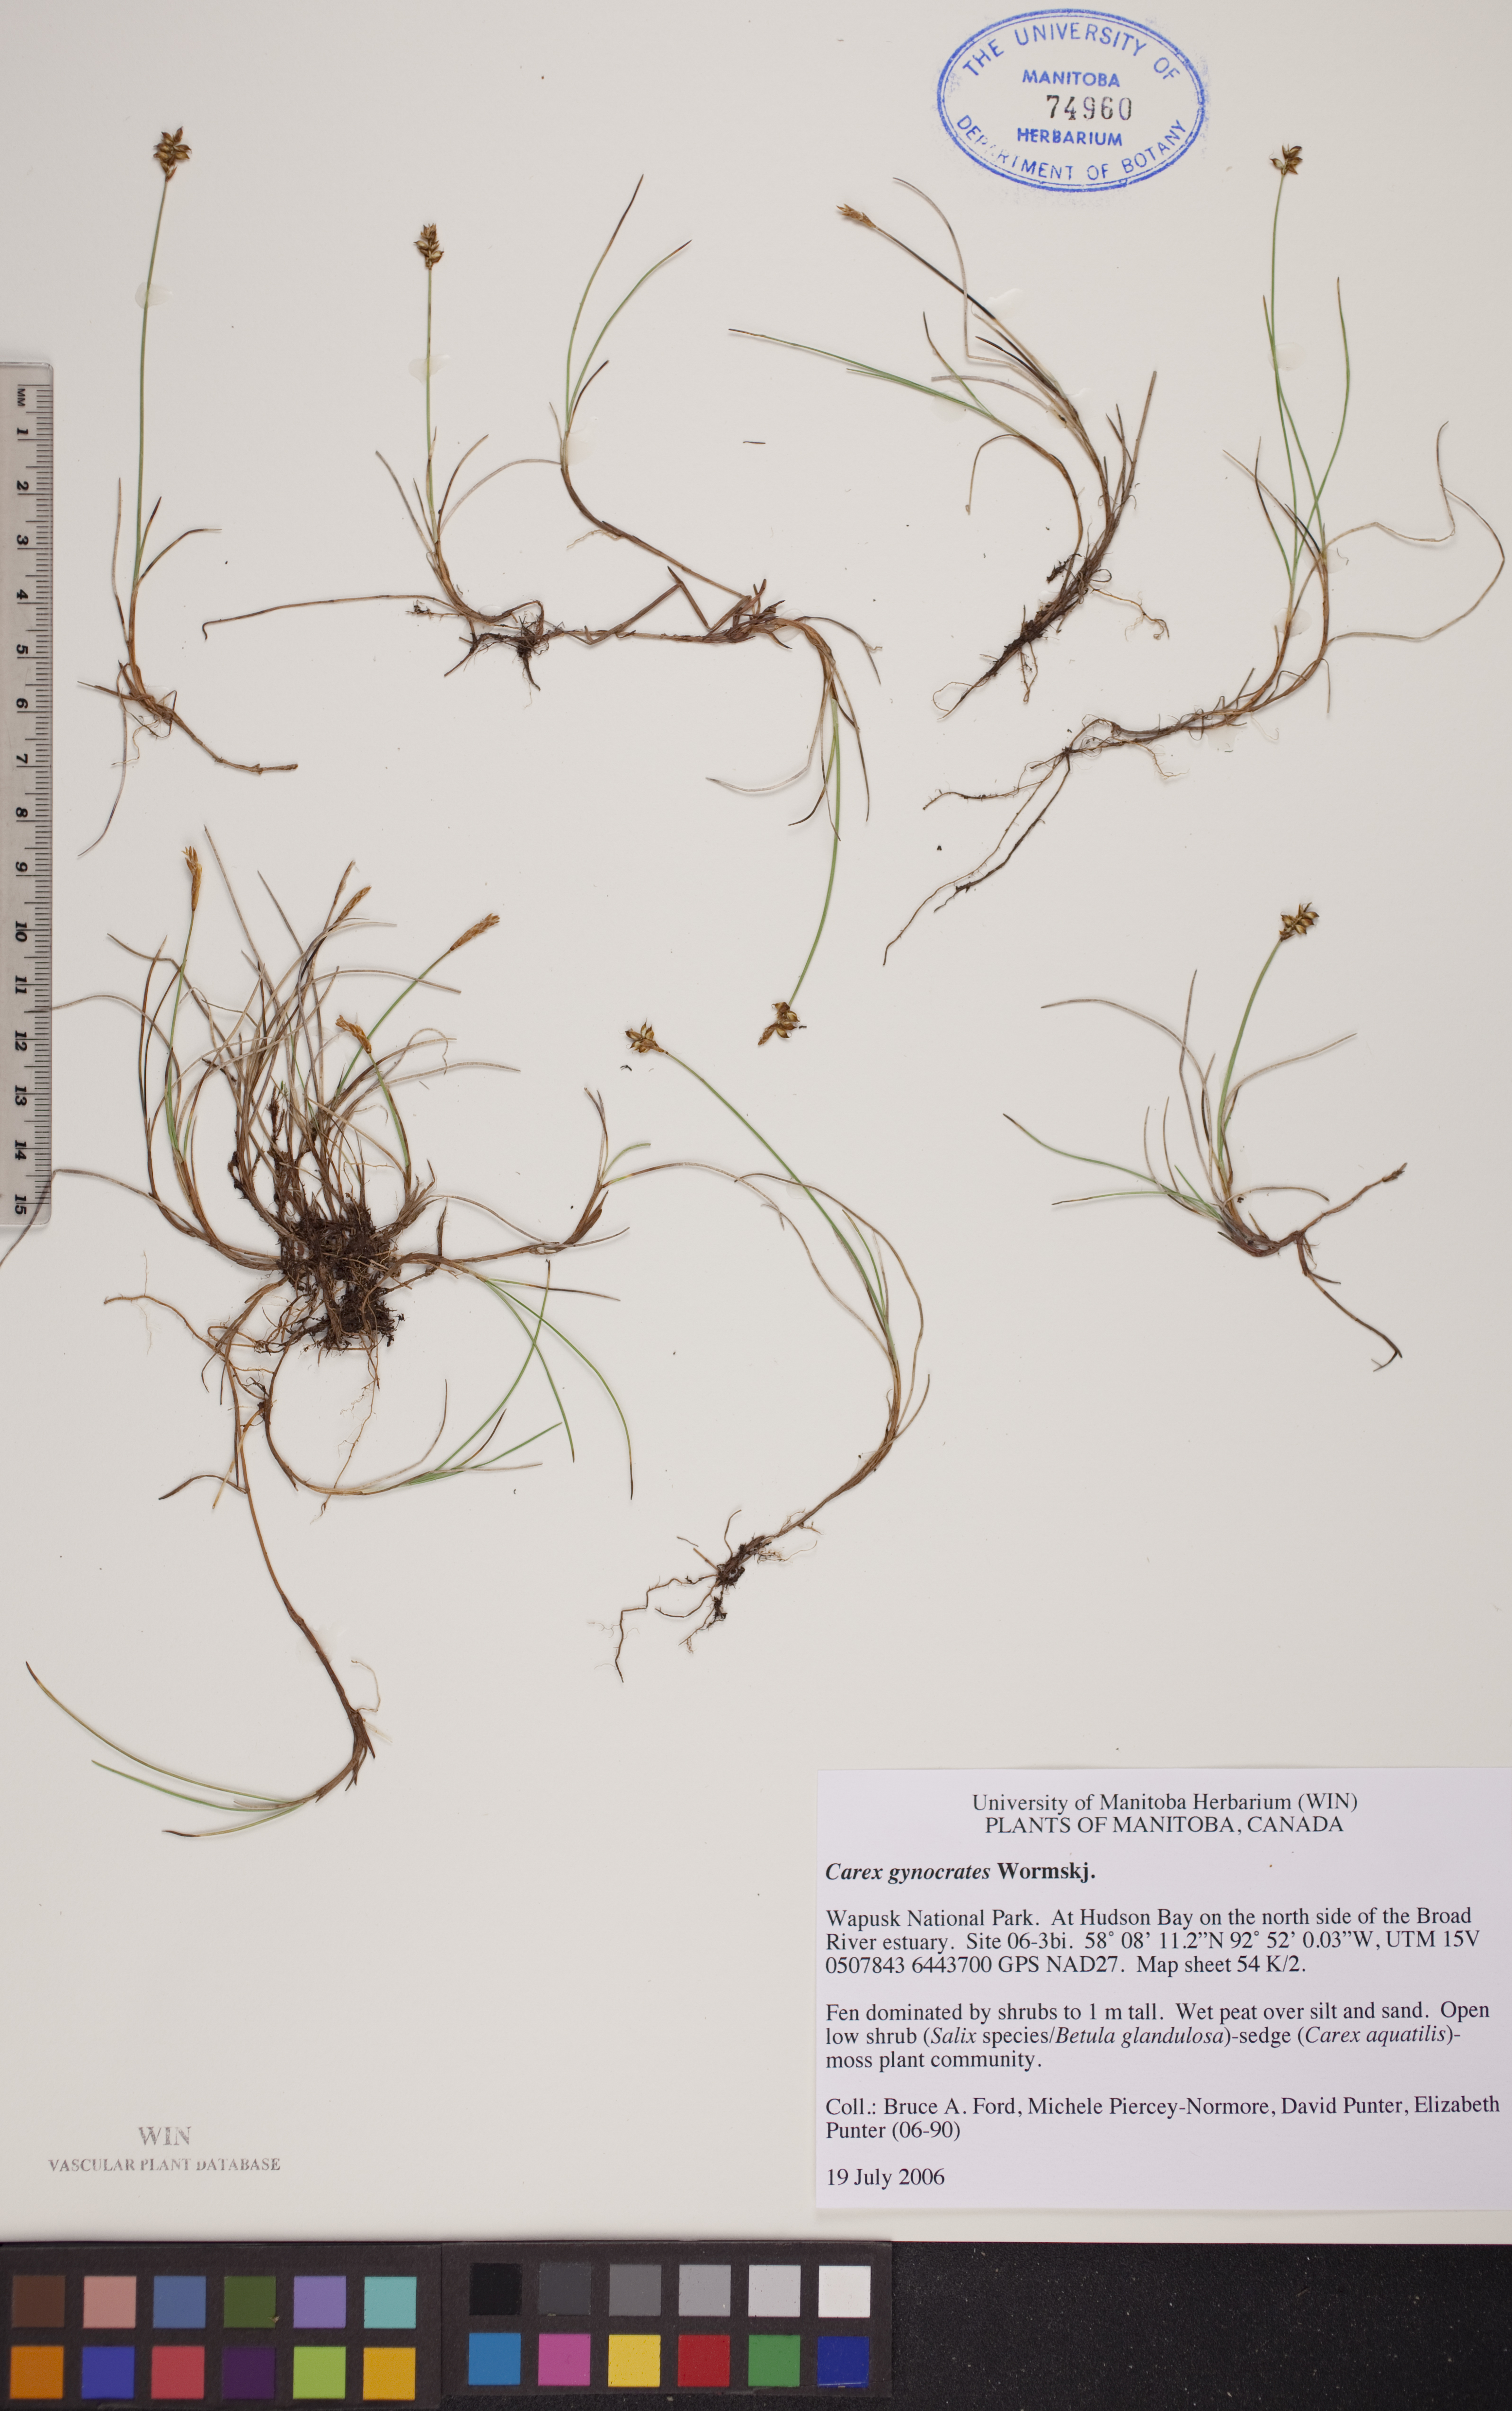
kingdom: Plantae
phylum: Tracheophyta
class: Liliopsida
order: Poales
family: Cyperaceae
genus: Carex
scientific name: Carex nardina
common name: Nard sedge
